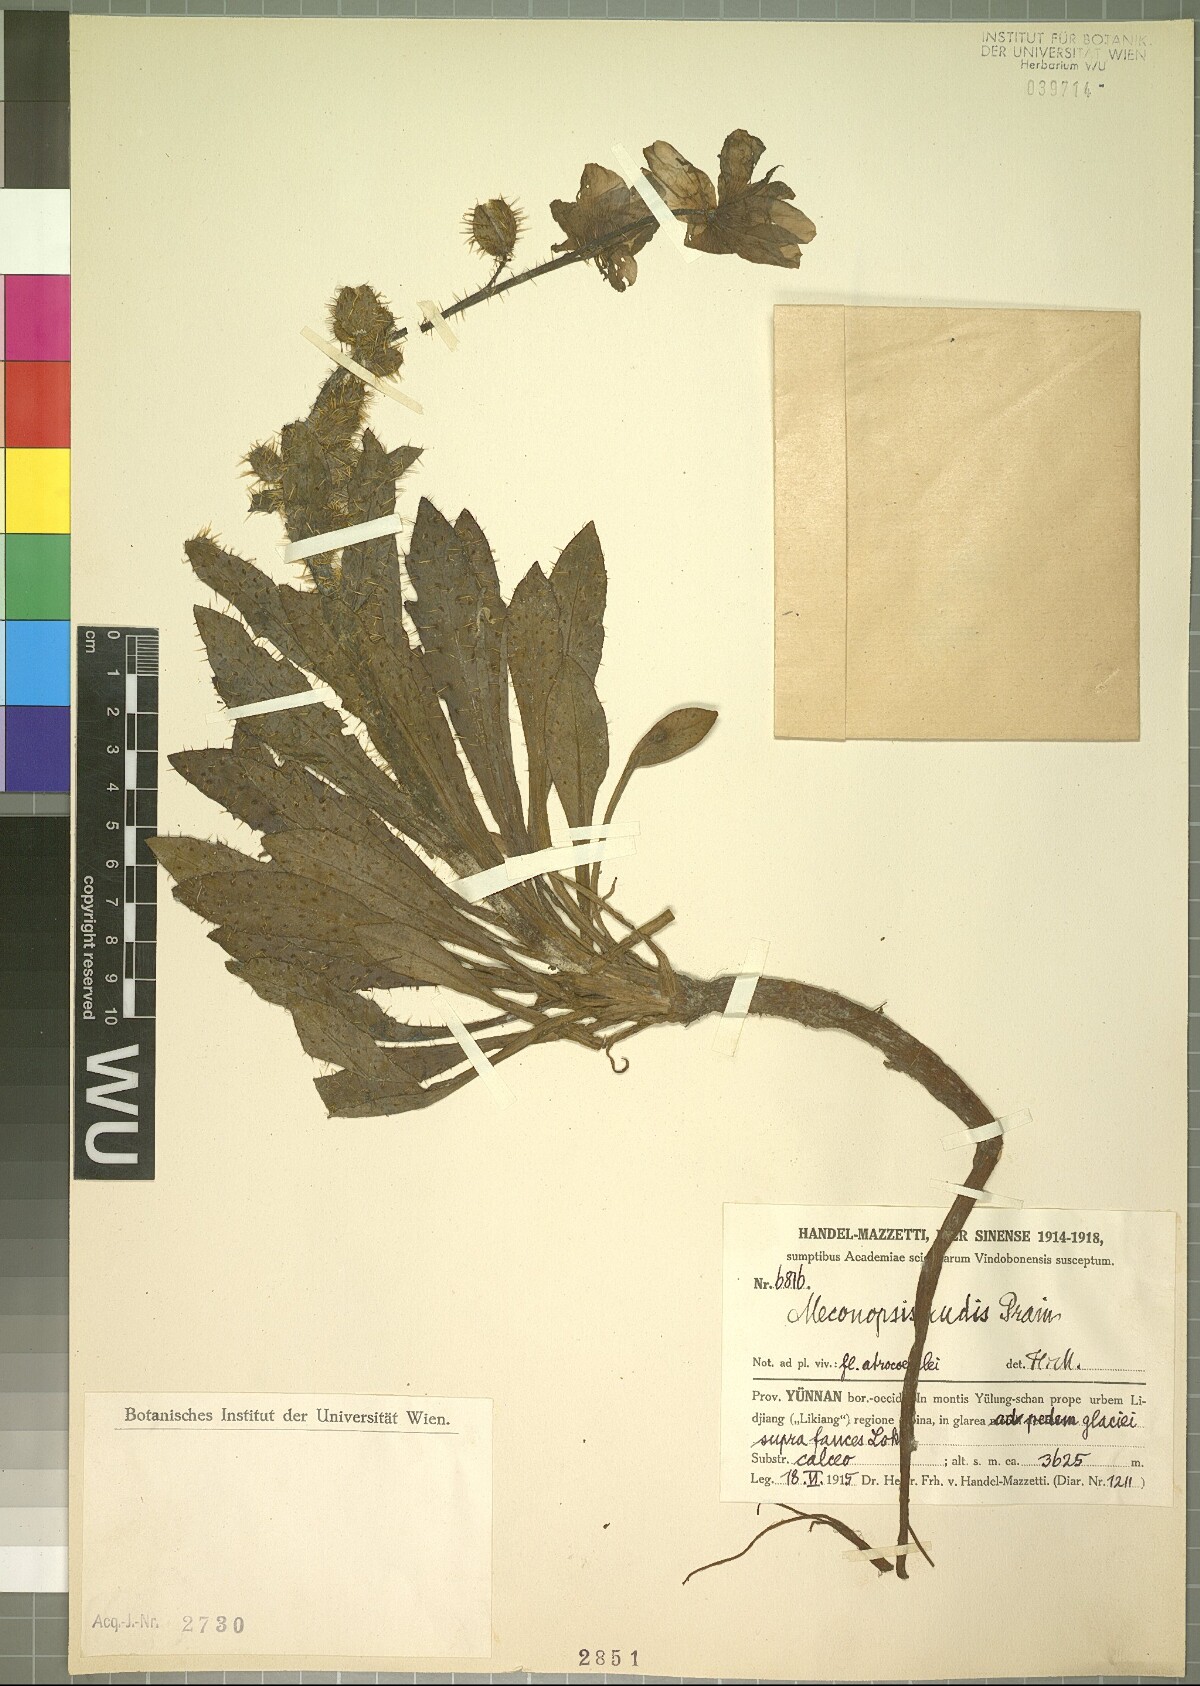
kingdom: Plantae
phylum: Tracheophyta
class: Magnoliopsida
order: Ranunculales
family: Papaveraceae
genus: Meconopsis
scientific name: Meconopsis rudis
